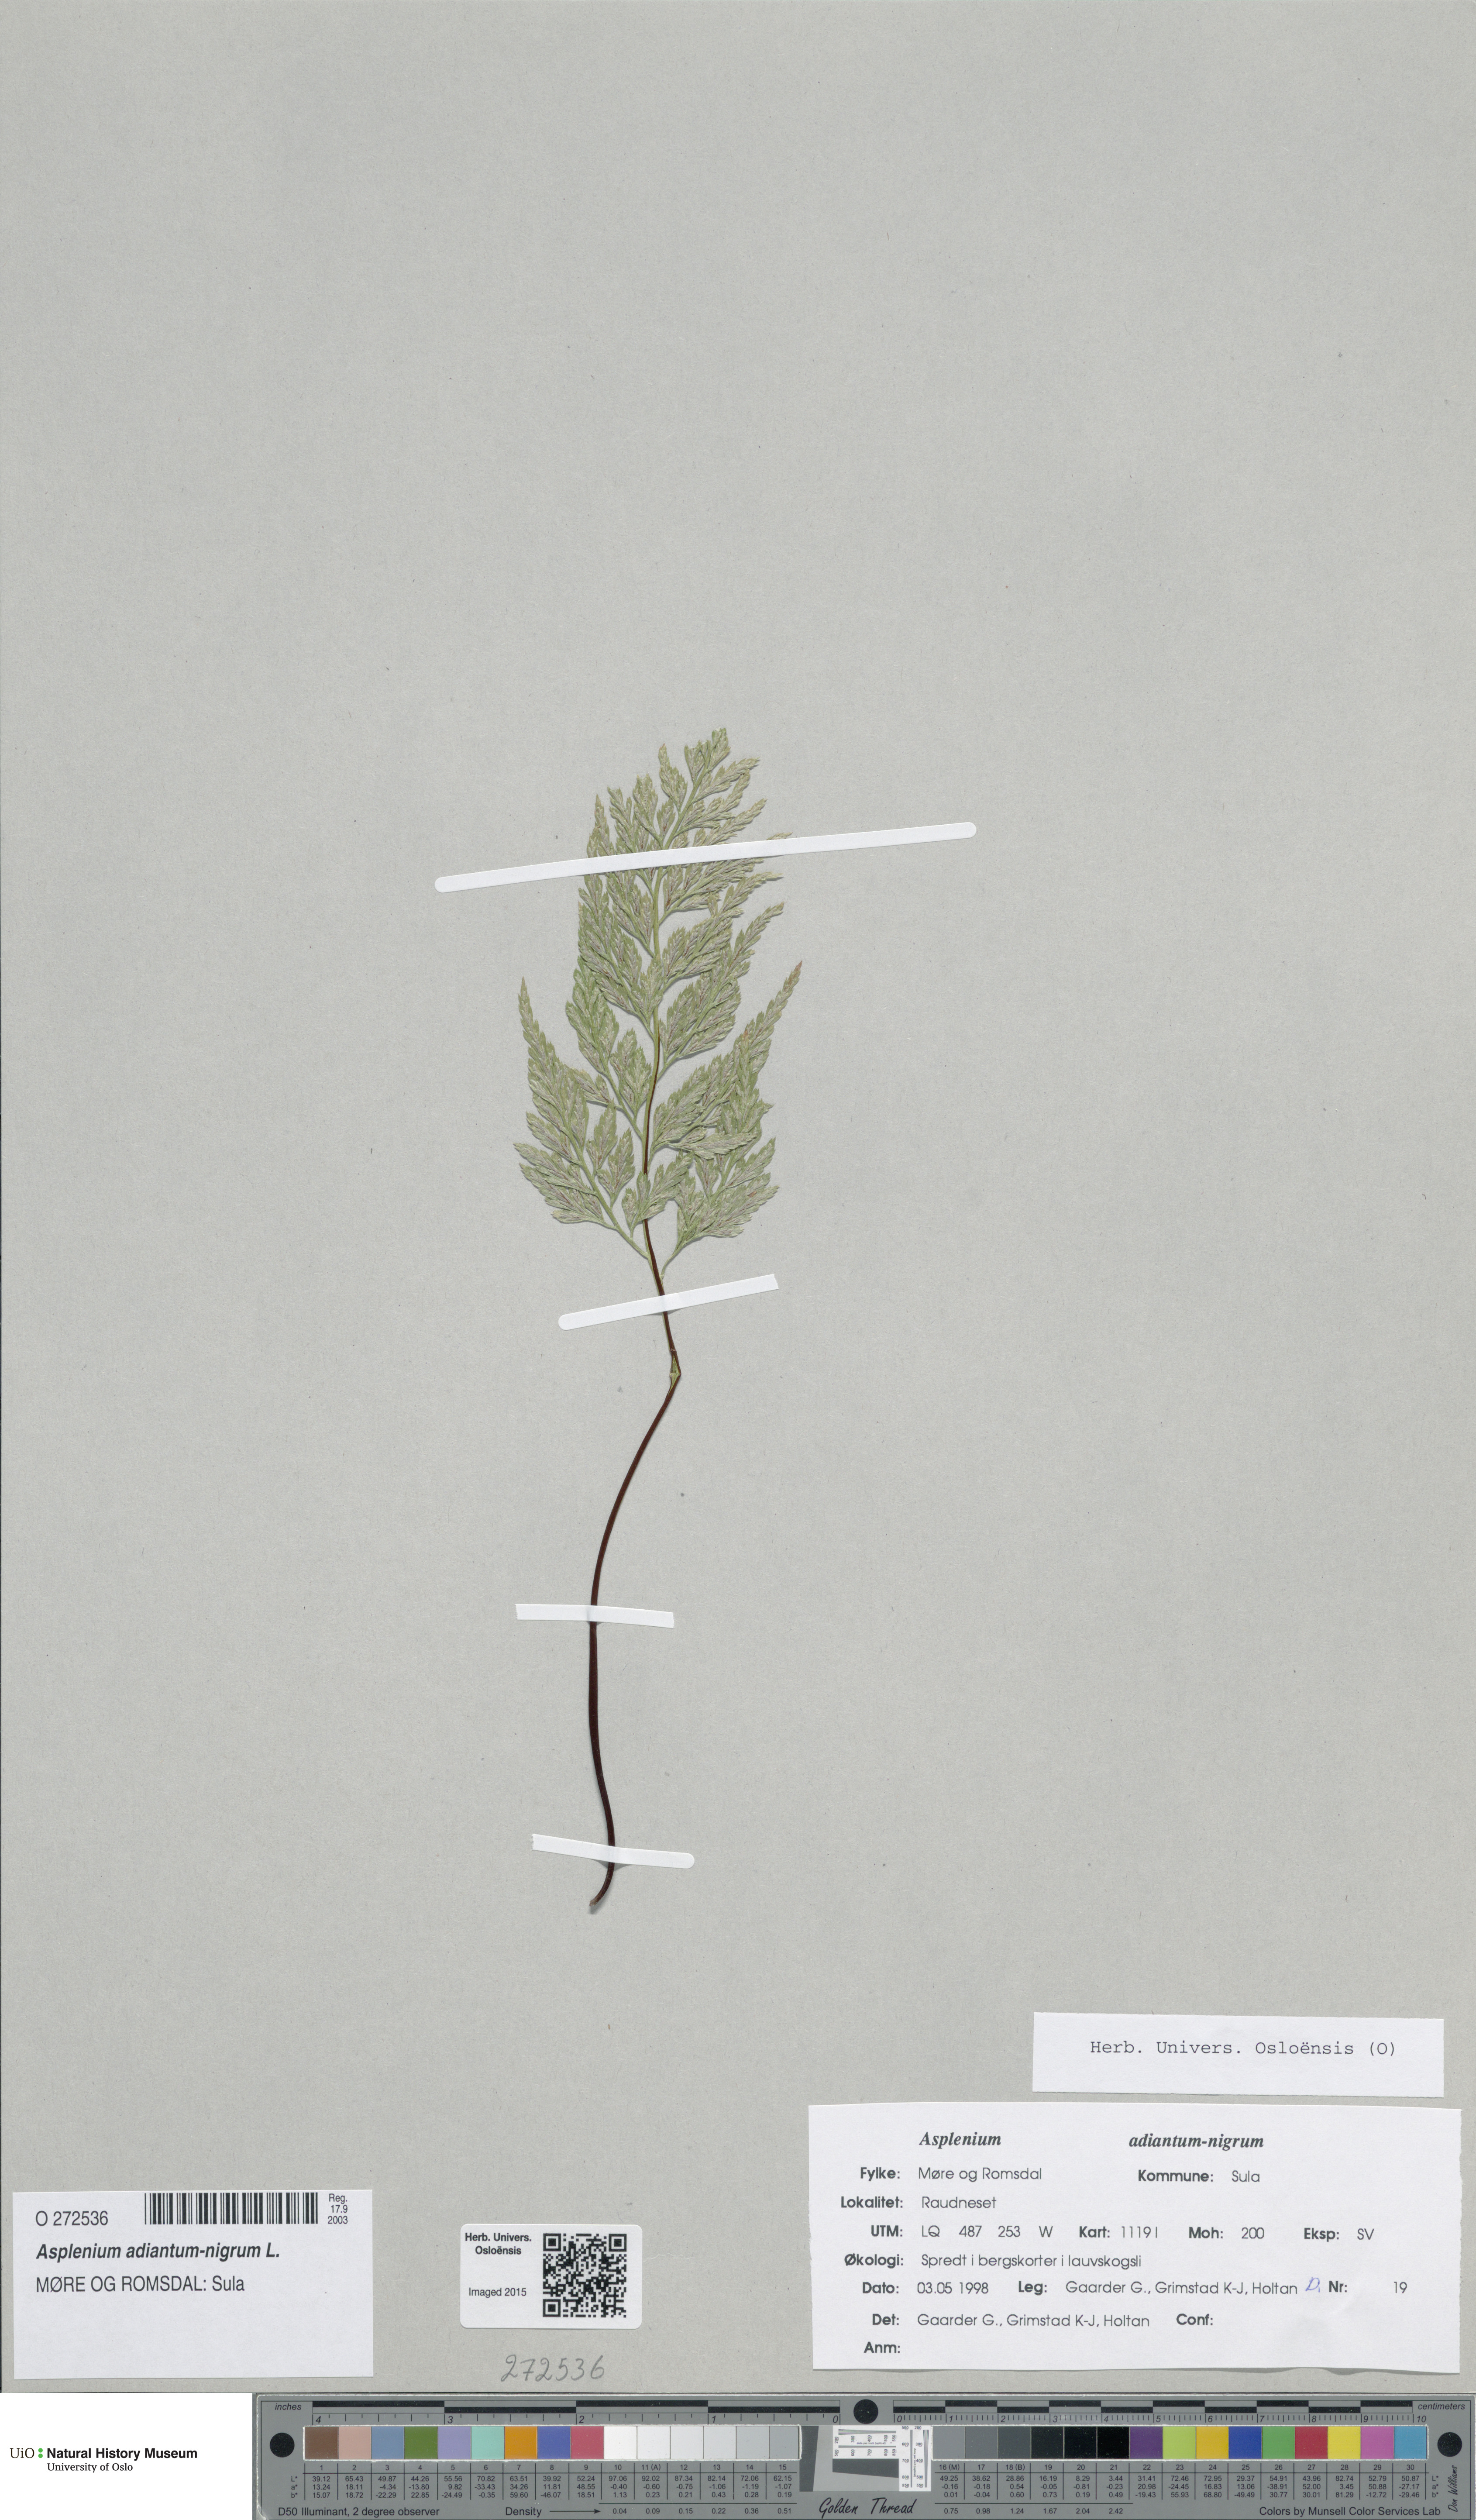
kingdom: Plantae
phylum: Tracheophyta
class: Polypodiopsida
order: Polypodiales
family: Aspleniaceae
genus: Asplenium
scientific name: Asplenium adiantum-nigrum
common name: Black spleenwort
